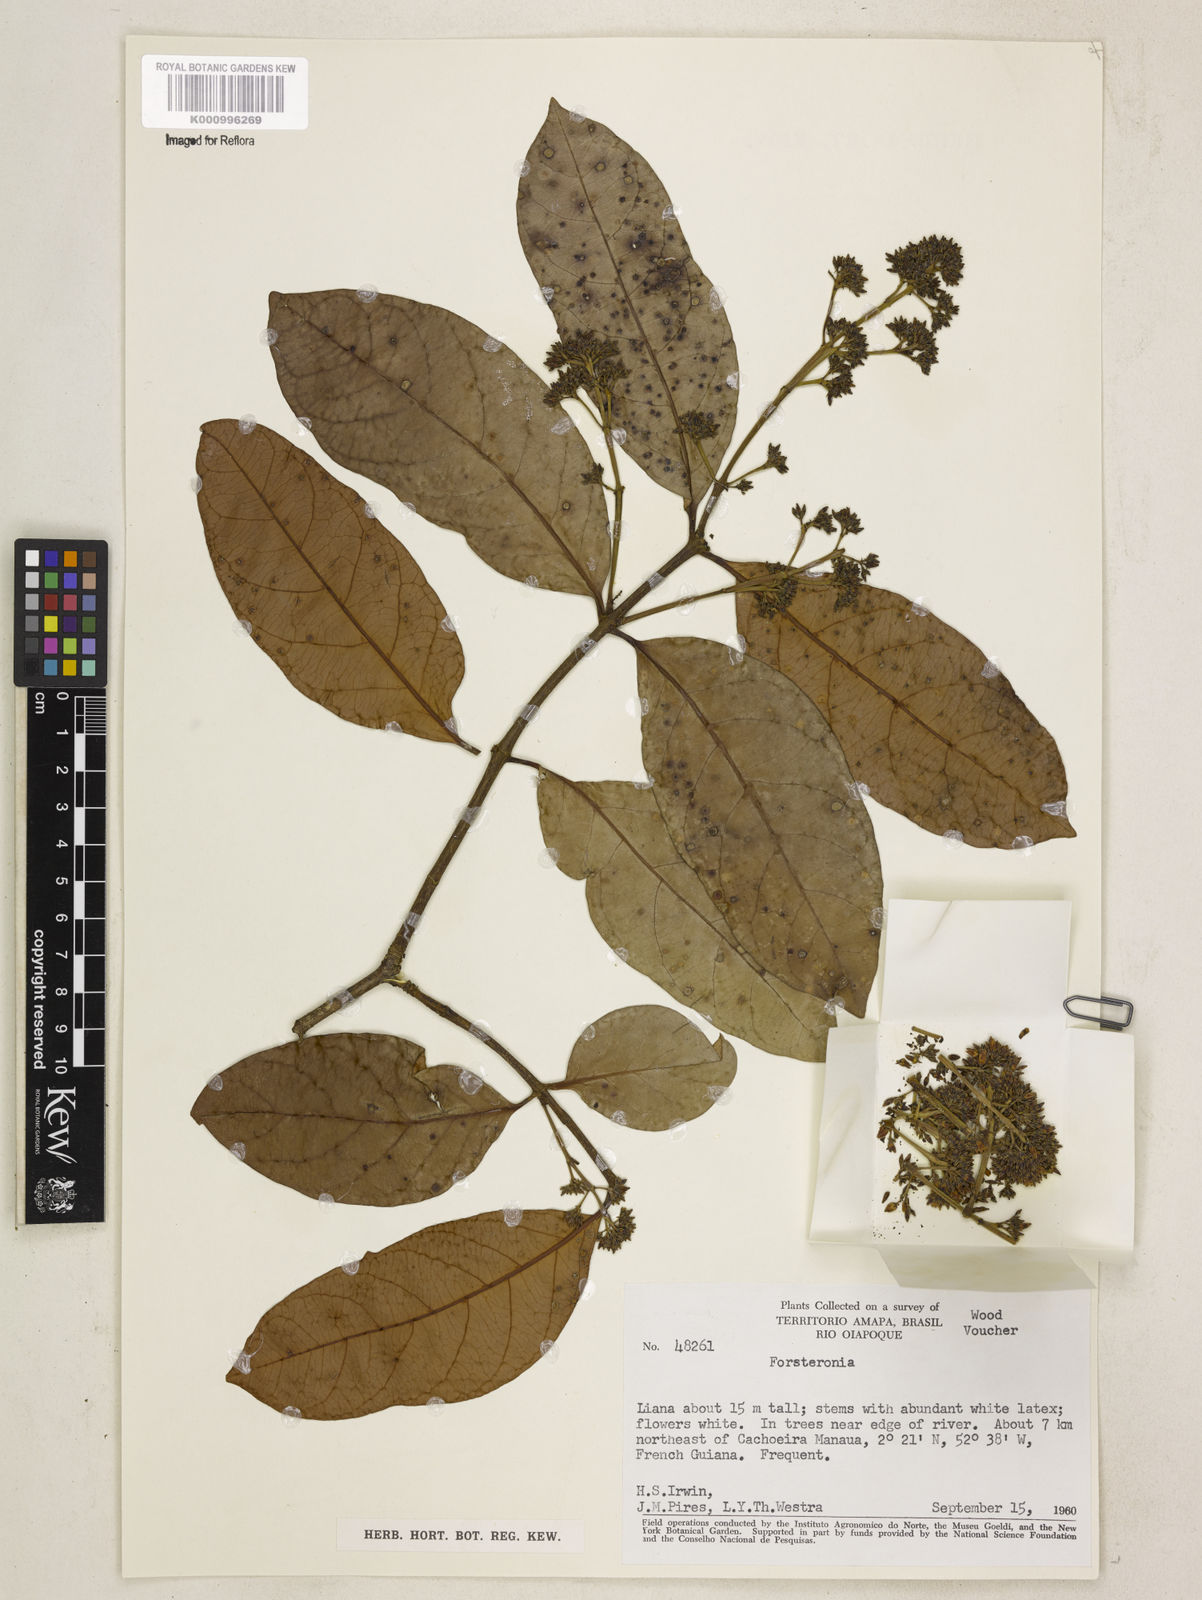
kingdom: Plantae
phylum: Tracheophyta
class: Magnoliopsida
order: Gentianales
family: Apocynaceae
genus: Forsteronia
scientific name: Forsteronia
